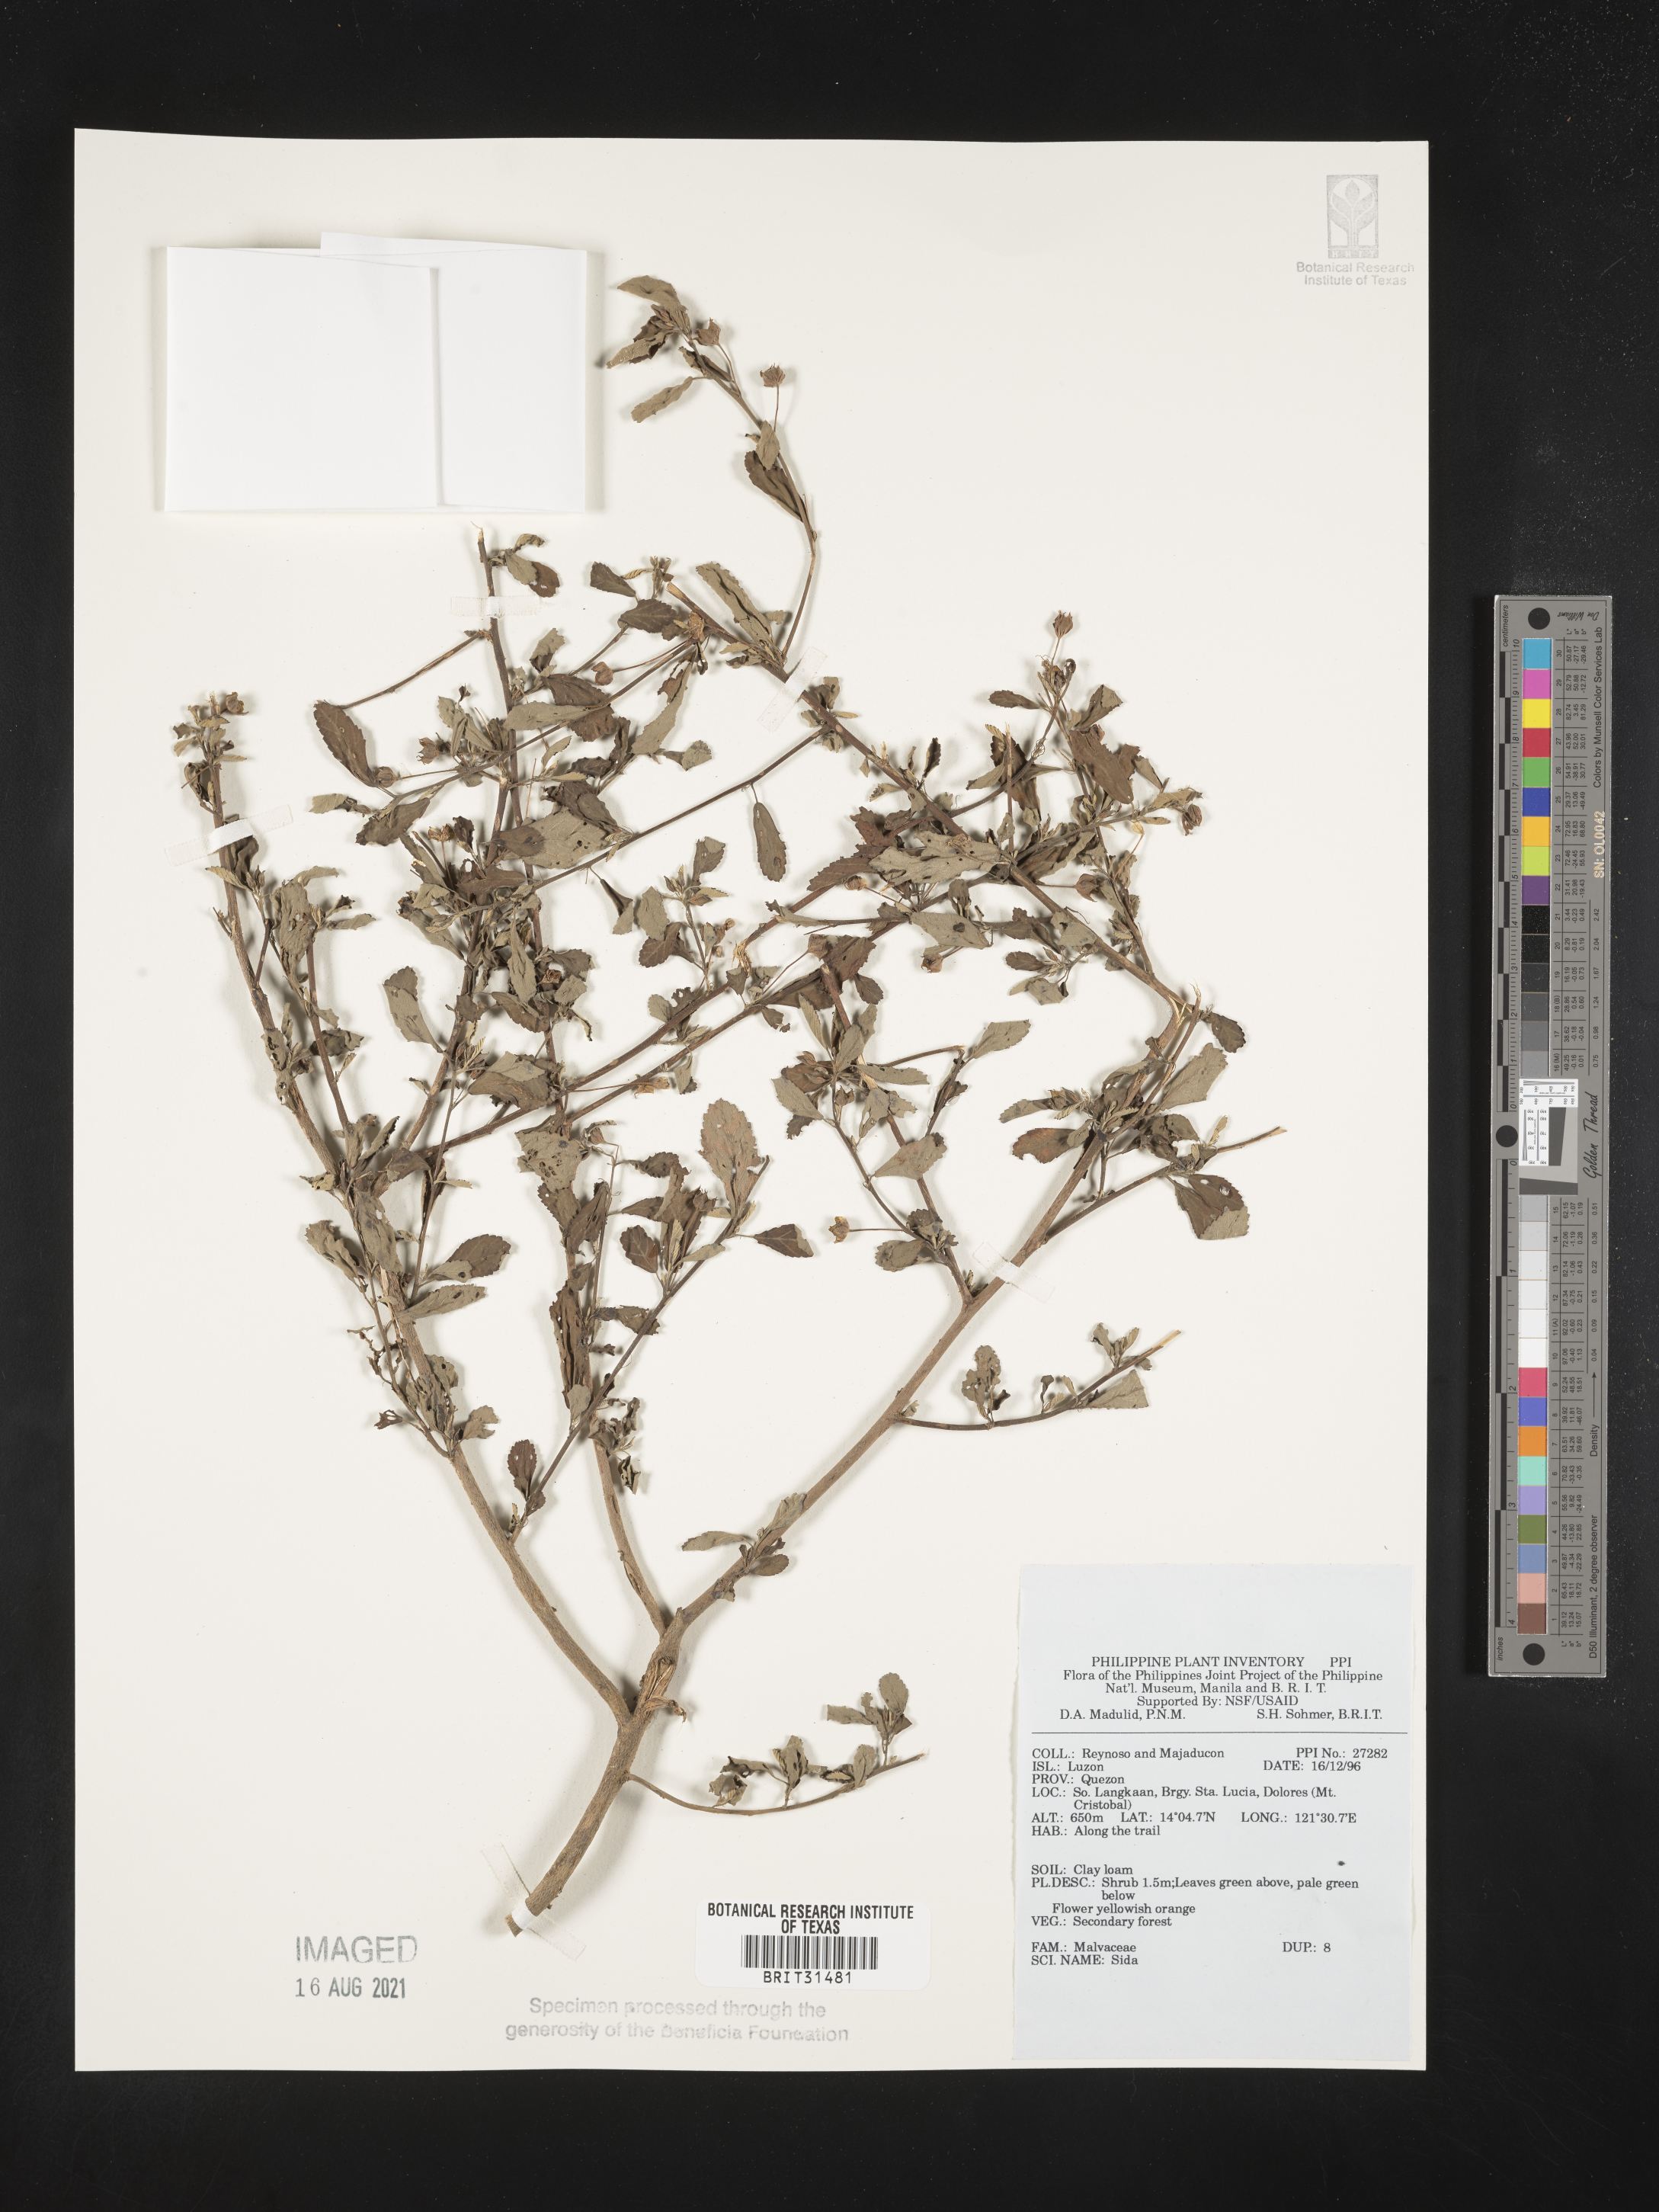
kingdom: Plantae
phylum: Tracheophyta
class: Magnoliopsida
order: Malvales
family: Malvaceae
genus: Sida
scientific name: Sida
